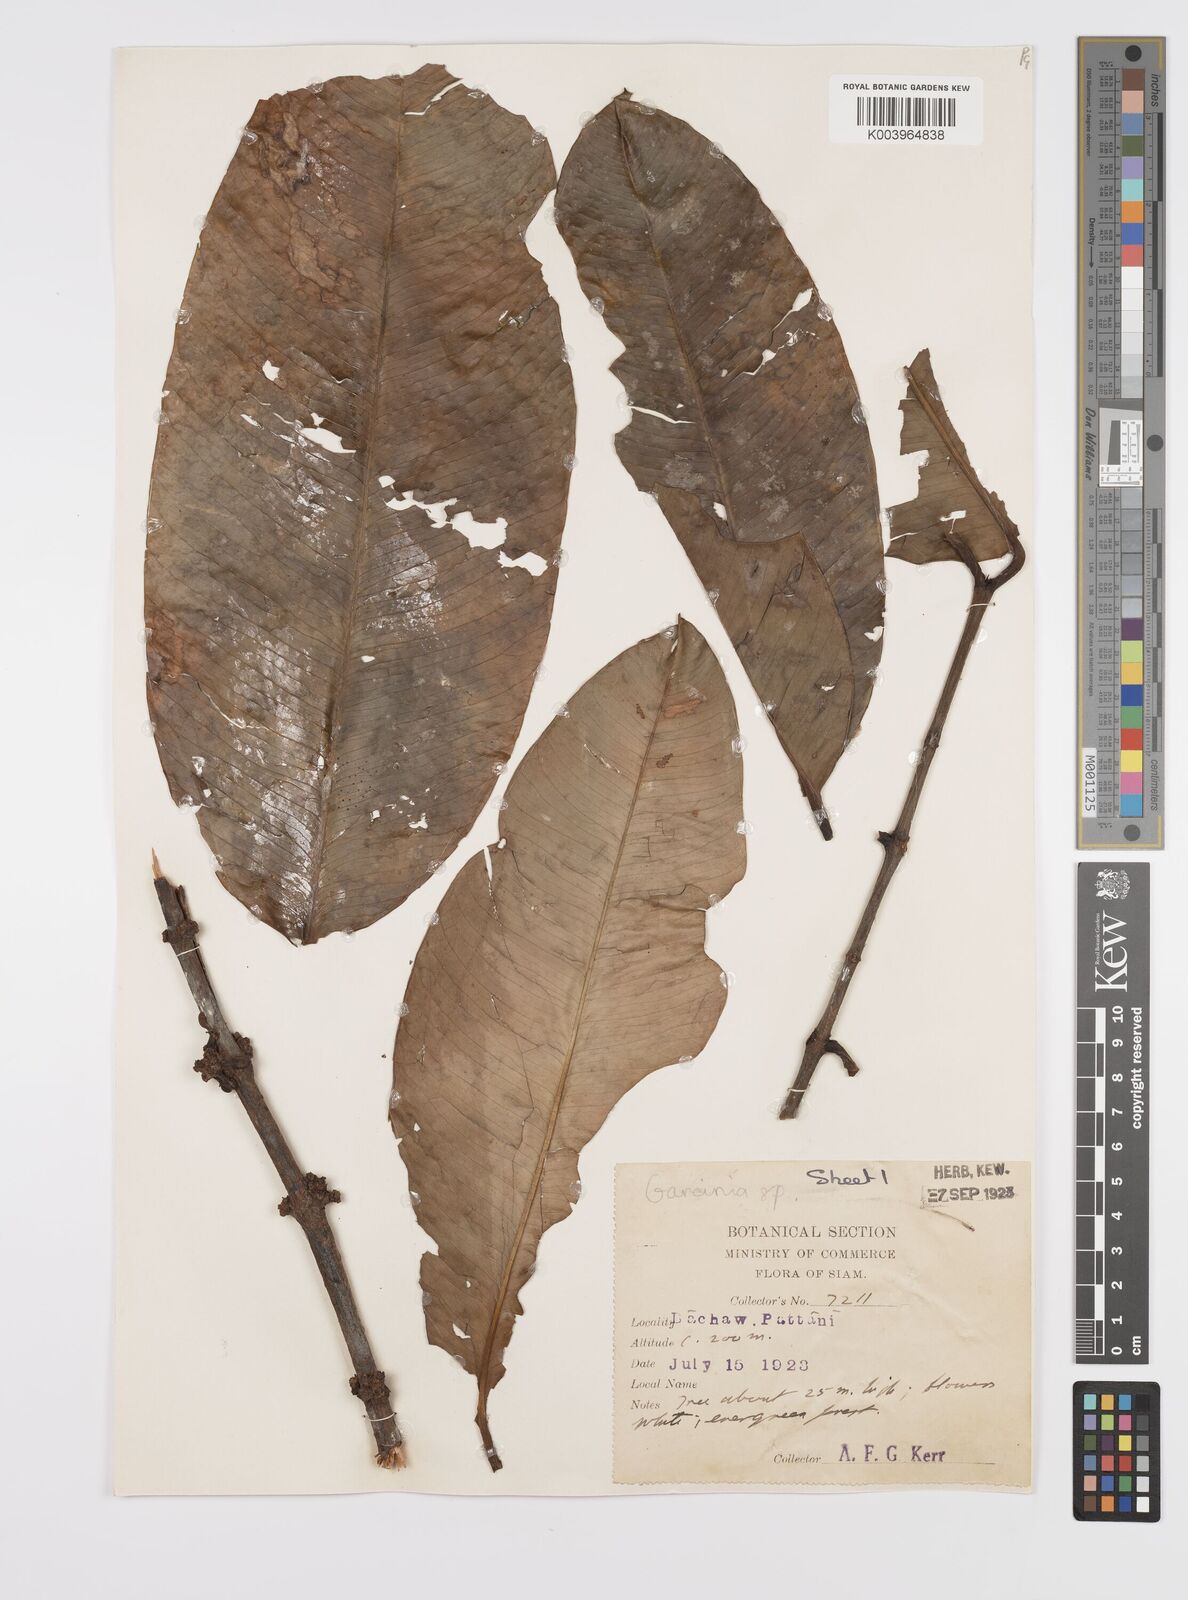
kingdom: Plantae
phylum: Tracheophyta
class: Magnoliopsida
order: Malpighiales
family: Clusiaceae
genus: Garcinia
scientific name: Garcinia
